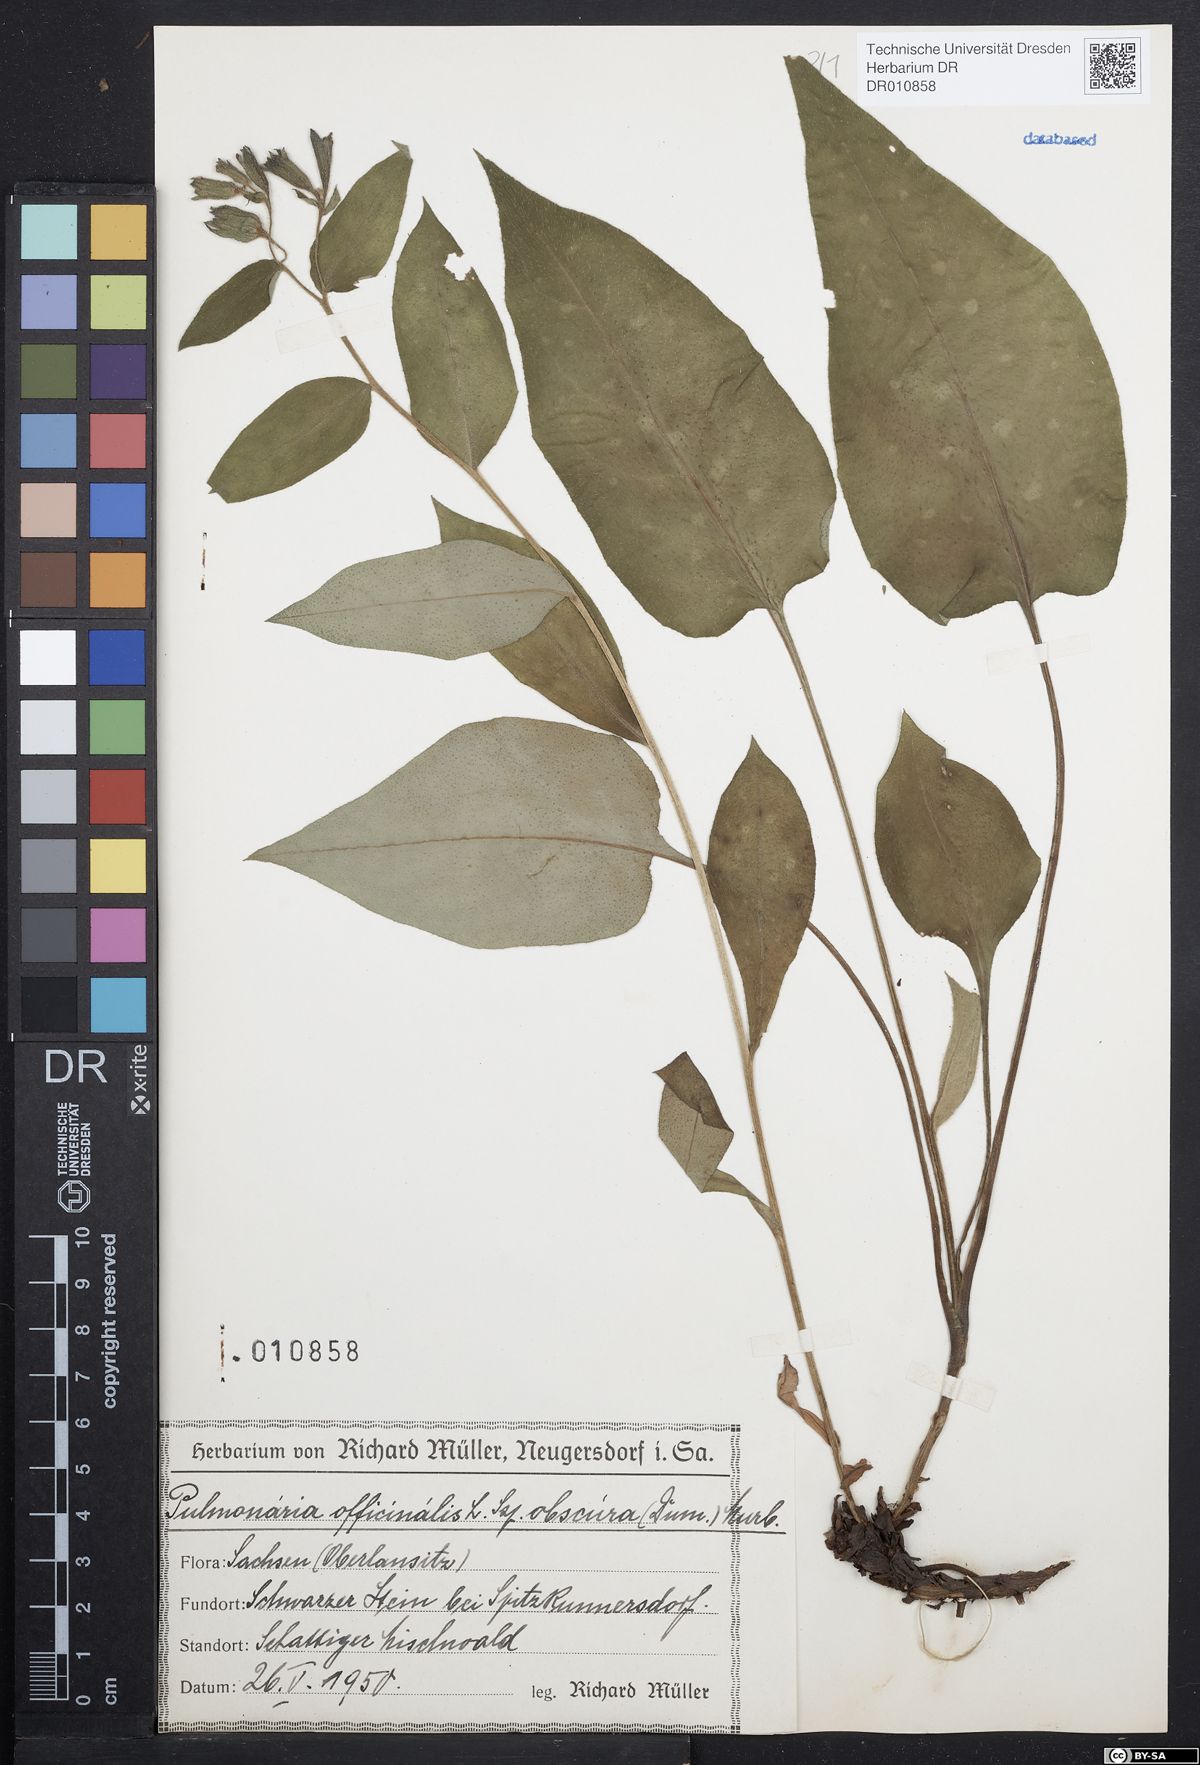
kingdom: Plantae
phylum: Tracheophyta
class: Magnoliopsida
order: Boraginales
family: Boraginaceae
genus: Pulmonaria
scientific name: Pulmonaria officinalis
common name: Lungwort
